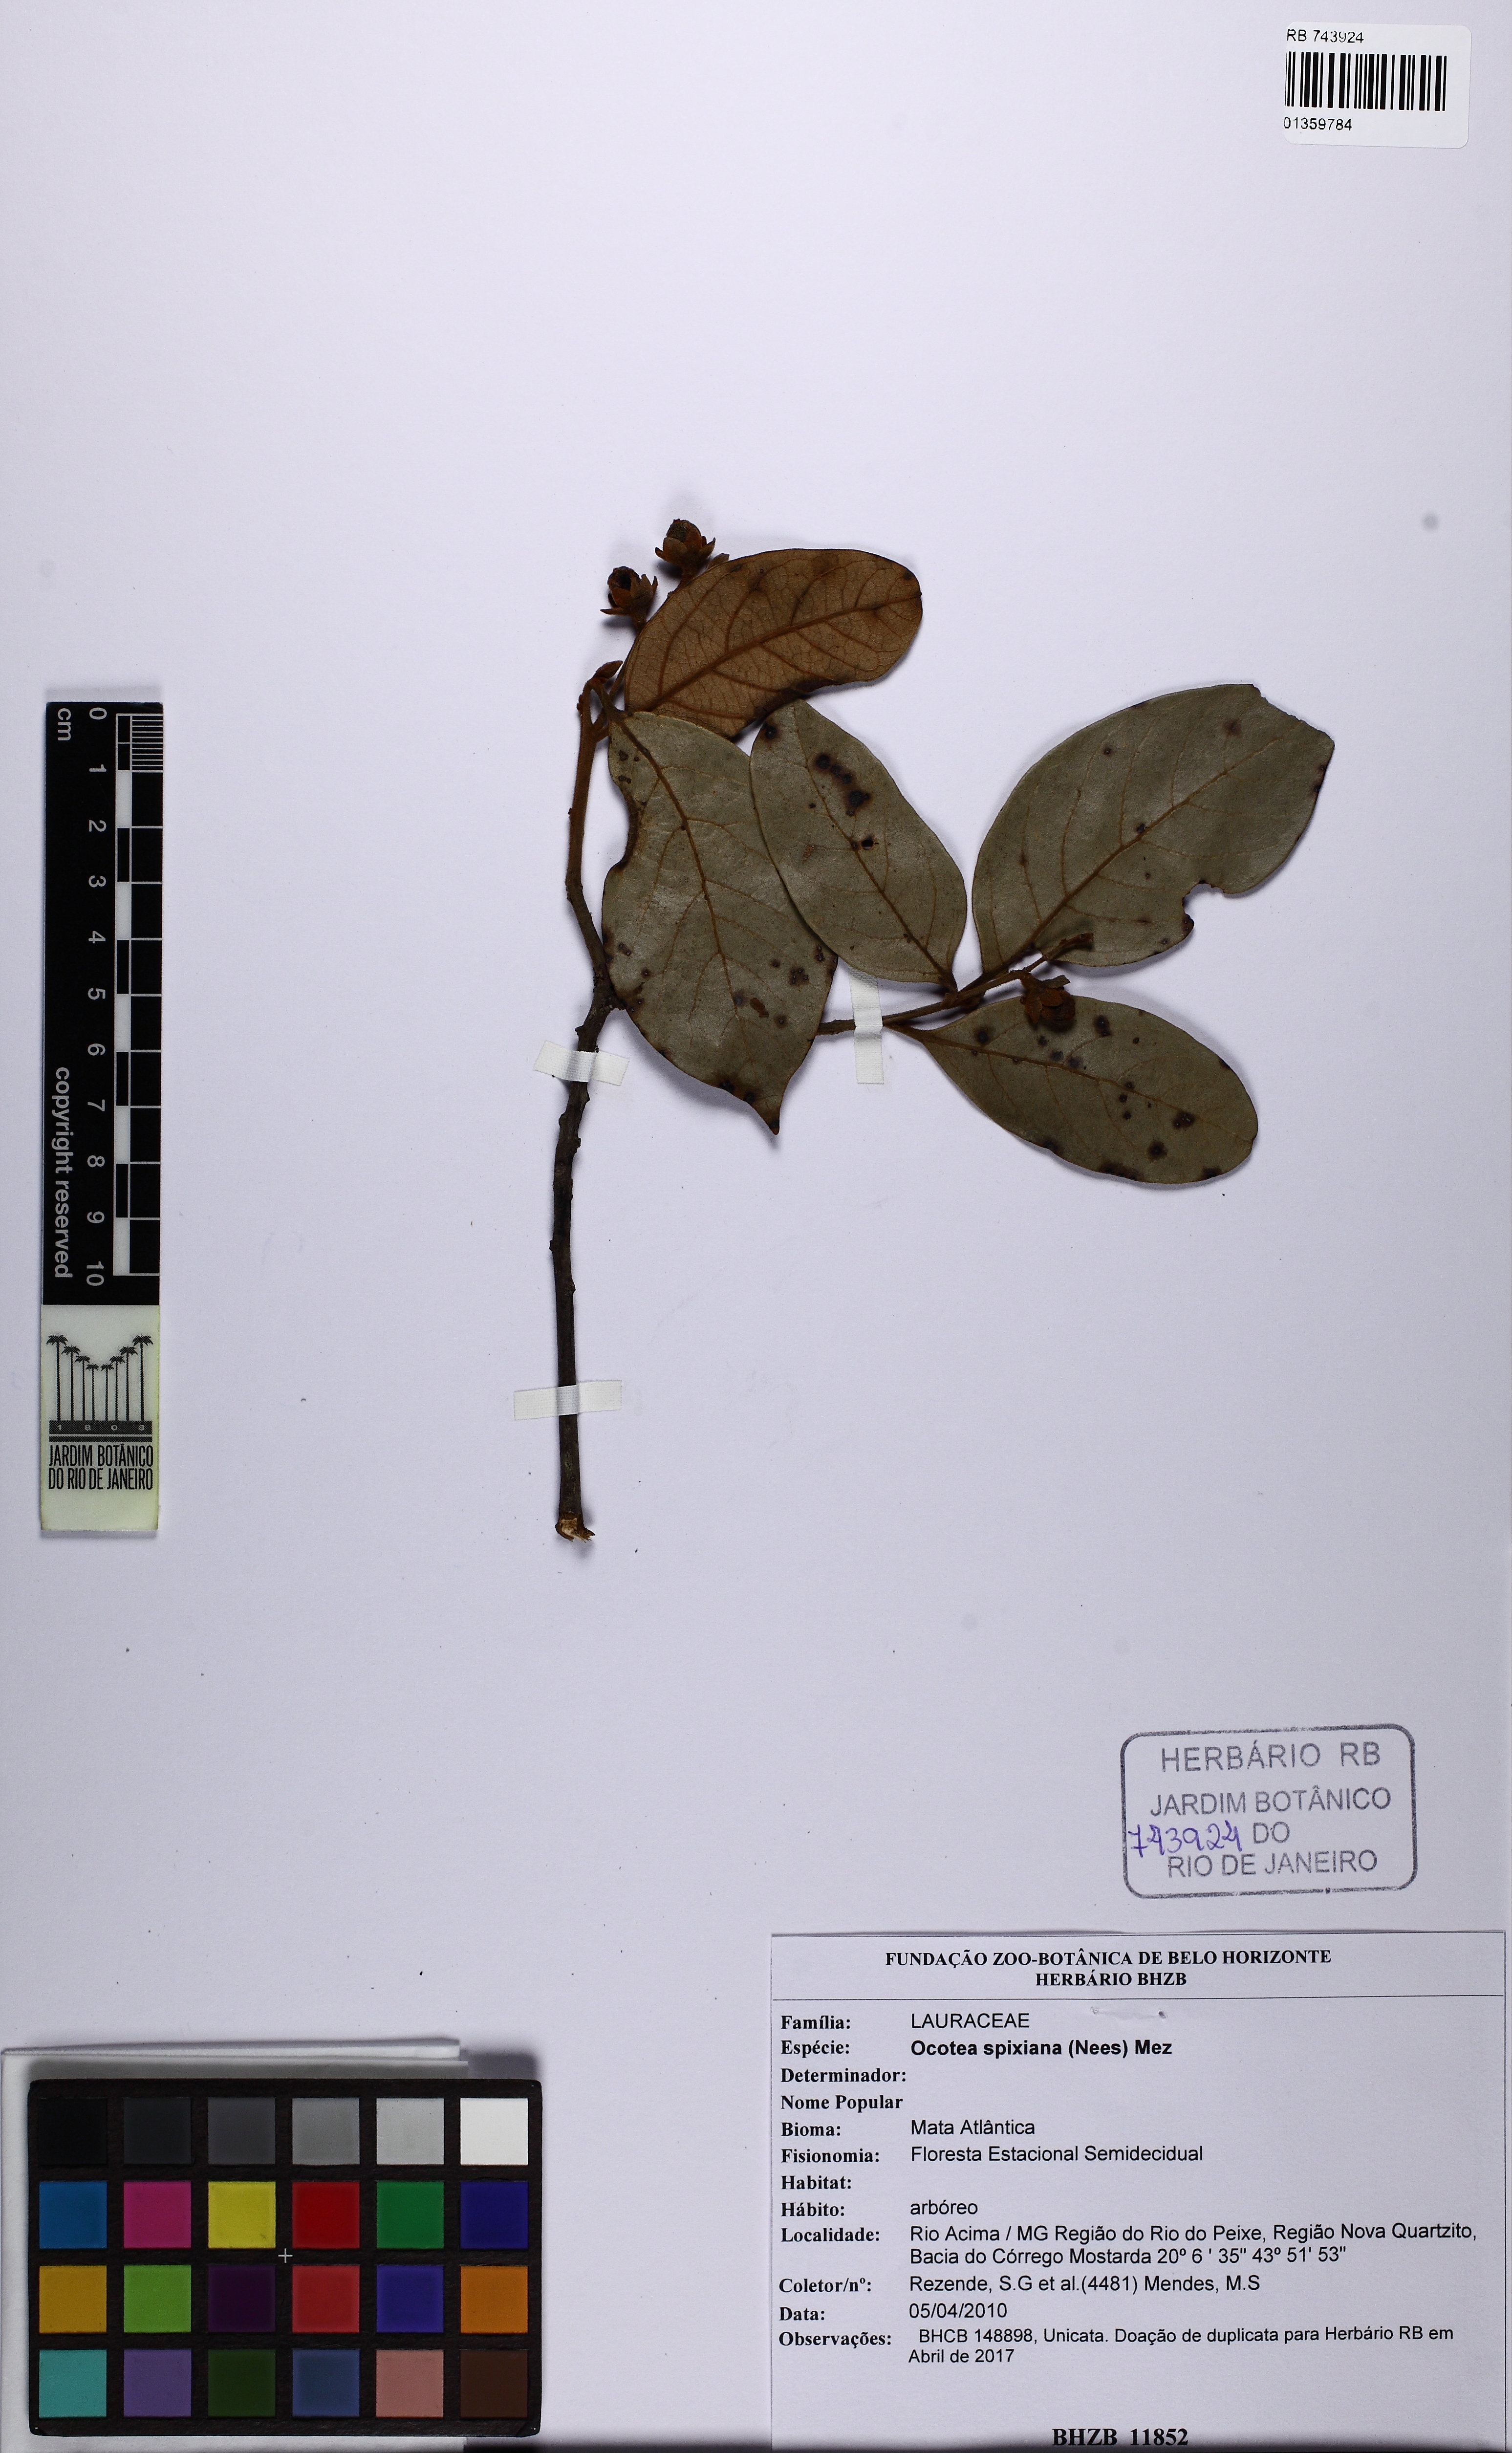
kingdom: Plantae
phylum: Tracheophyta
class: Magnoliopsida
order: Laurales
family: Lauraceae
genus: Ocotea
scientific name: Ocotea spixiana
